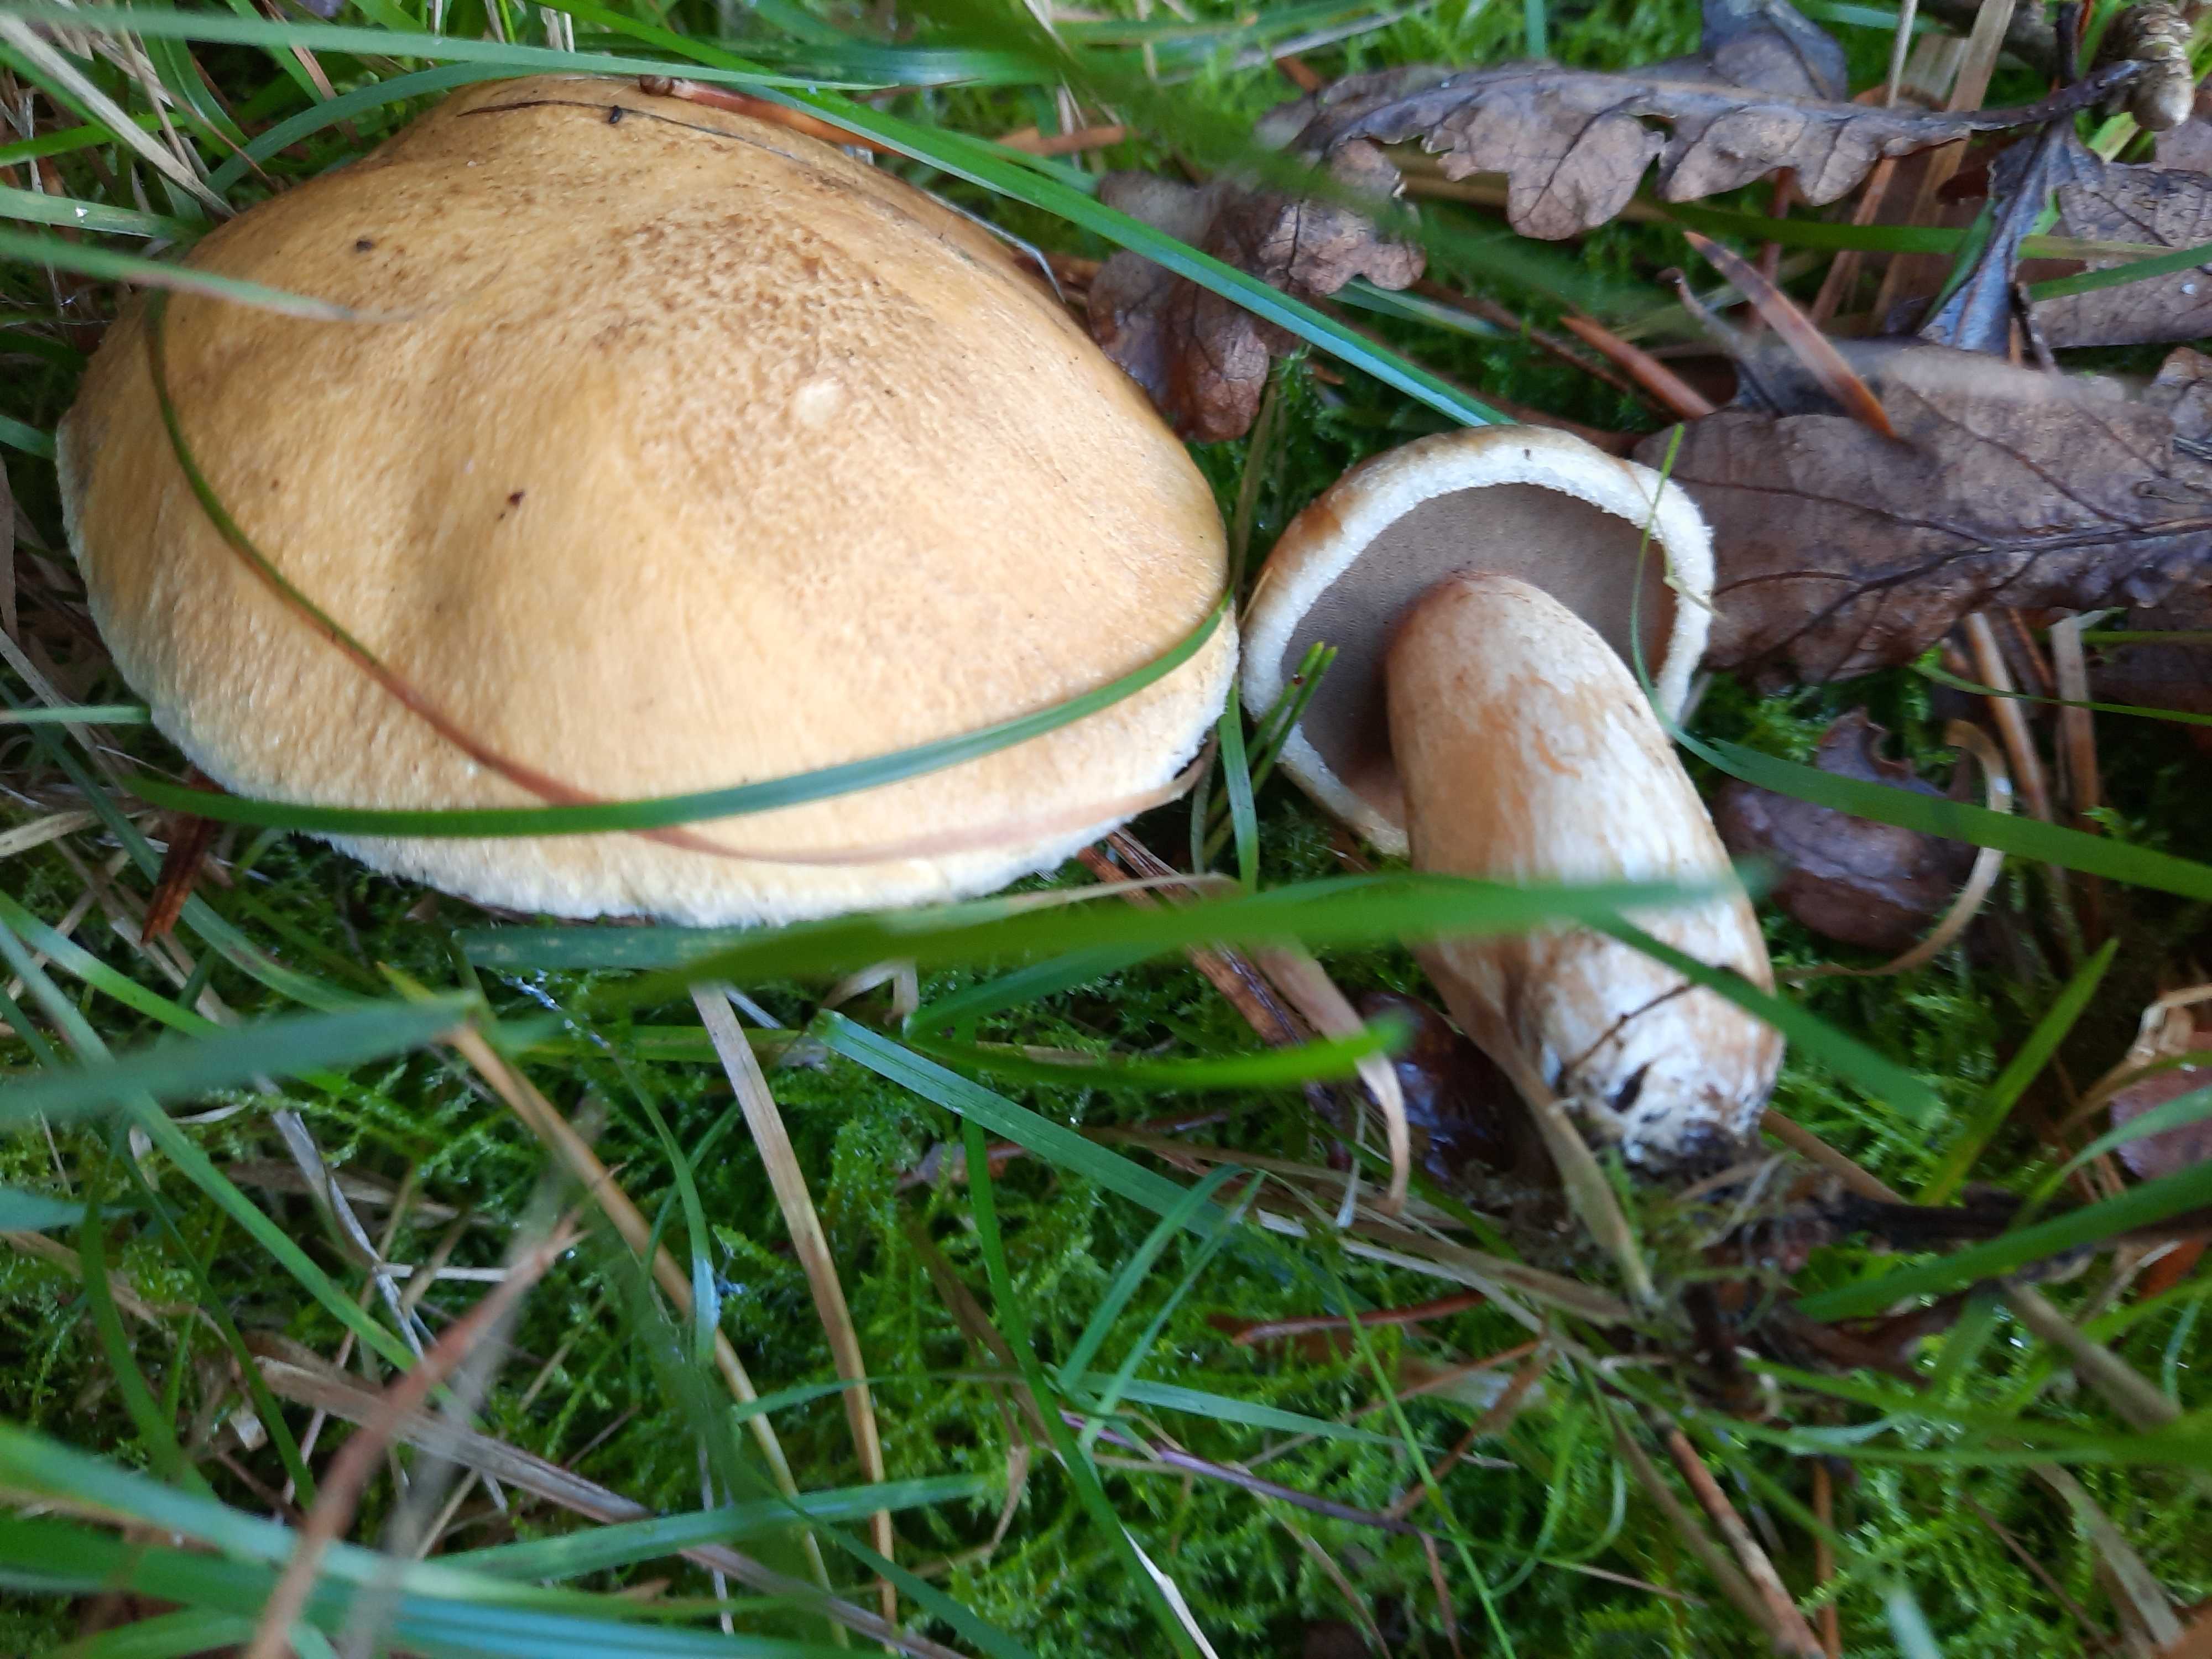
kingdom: Fungi
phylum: Basidiomycota
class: Agaricomycetes
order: Boletales
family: Suillaceae
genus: Suillus
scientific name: Suillus variegatus
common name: broget slimrørhat
